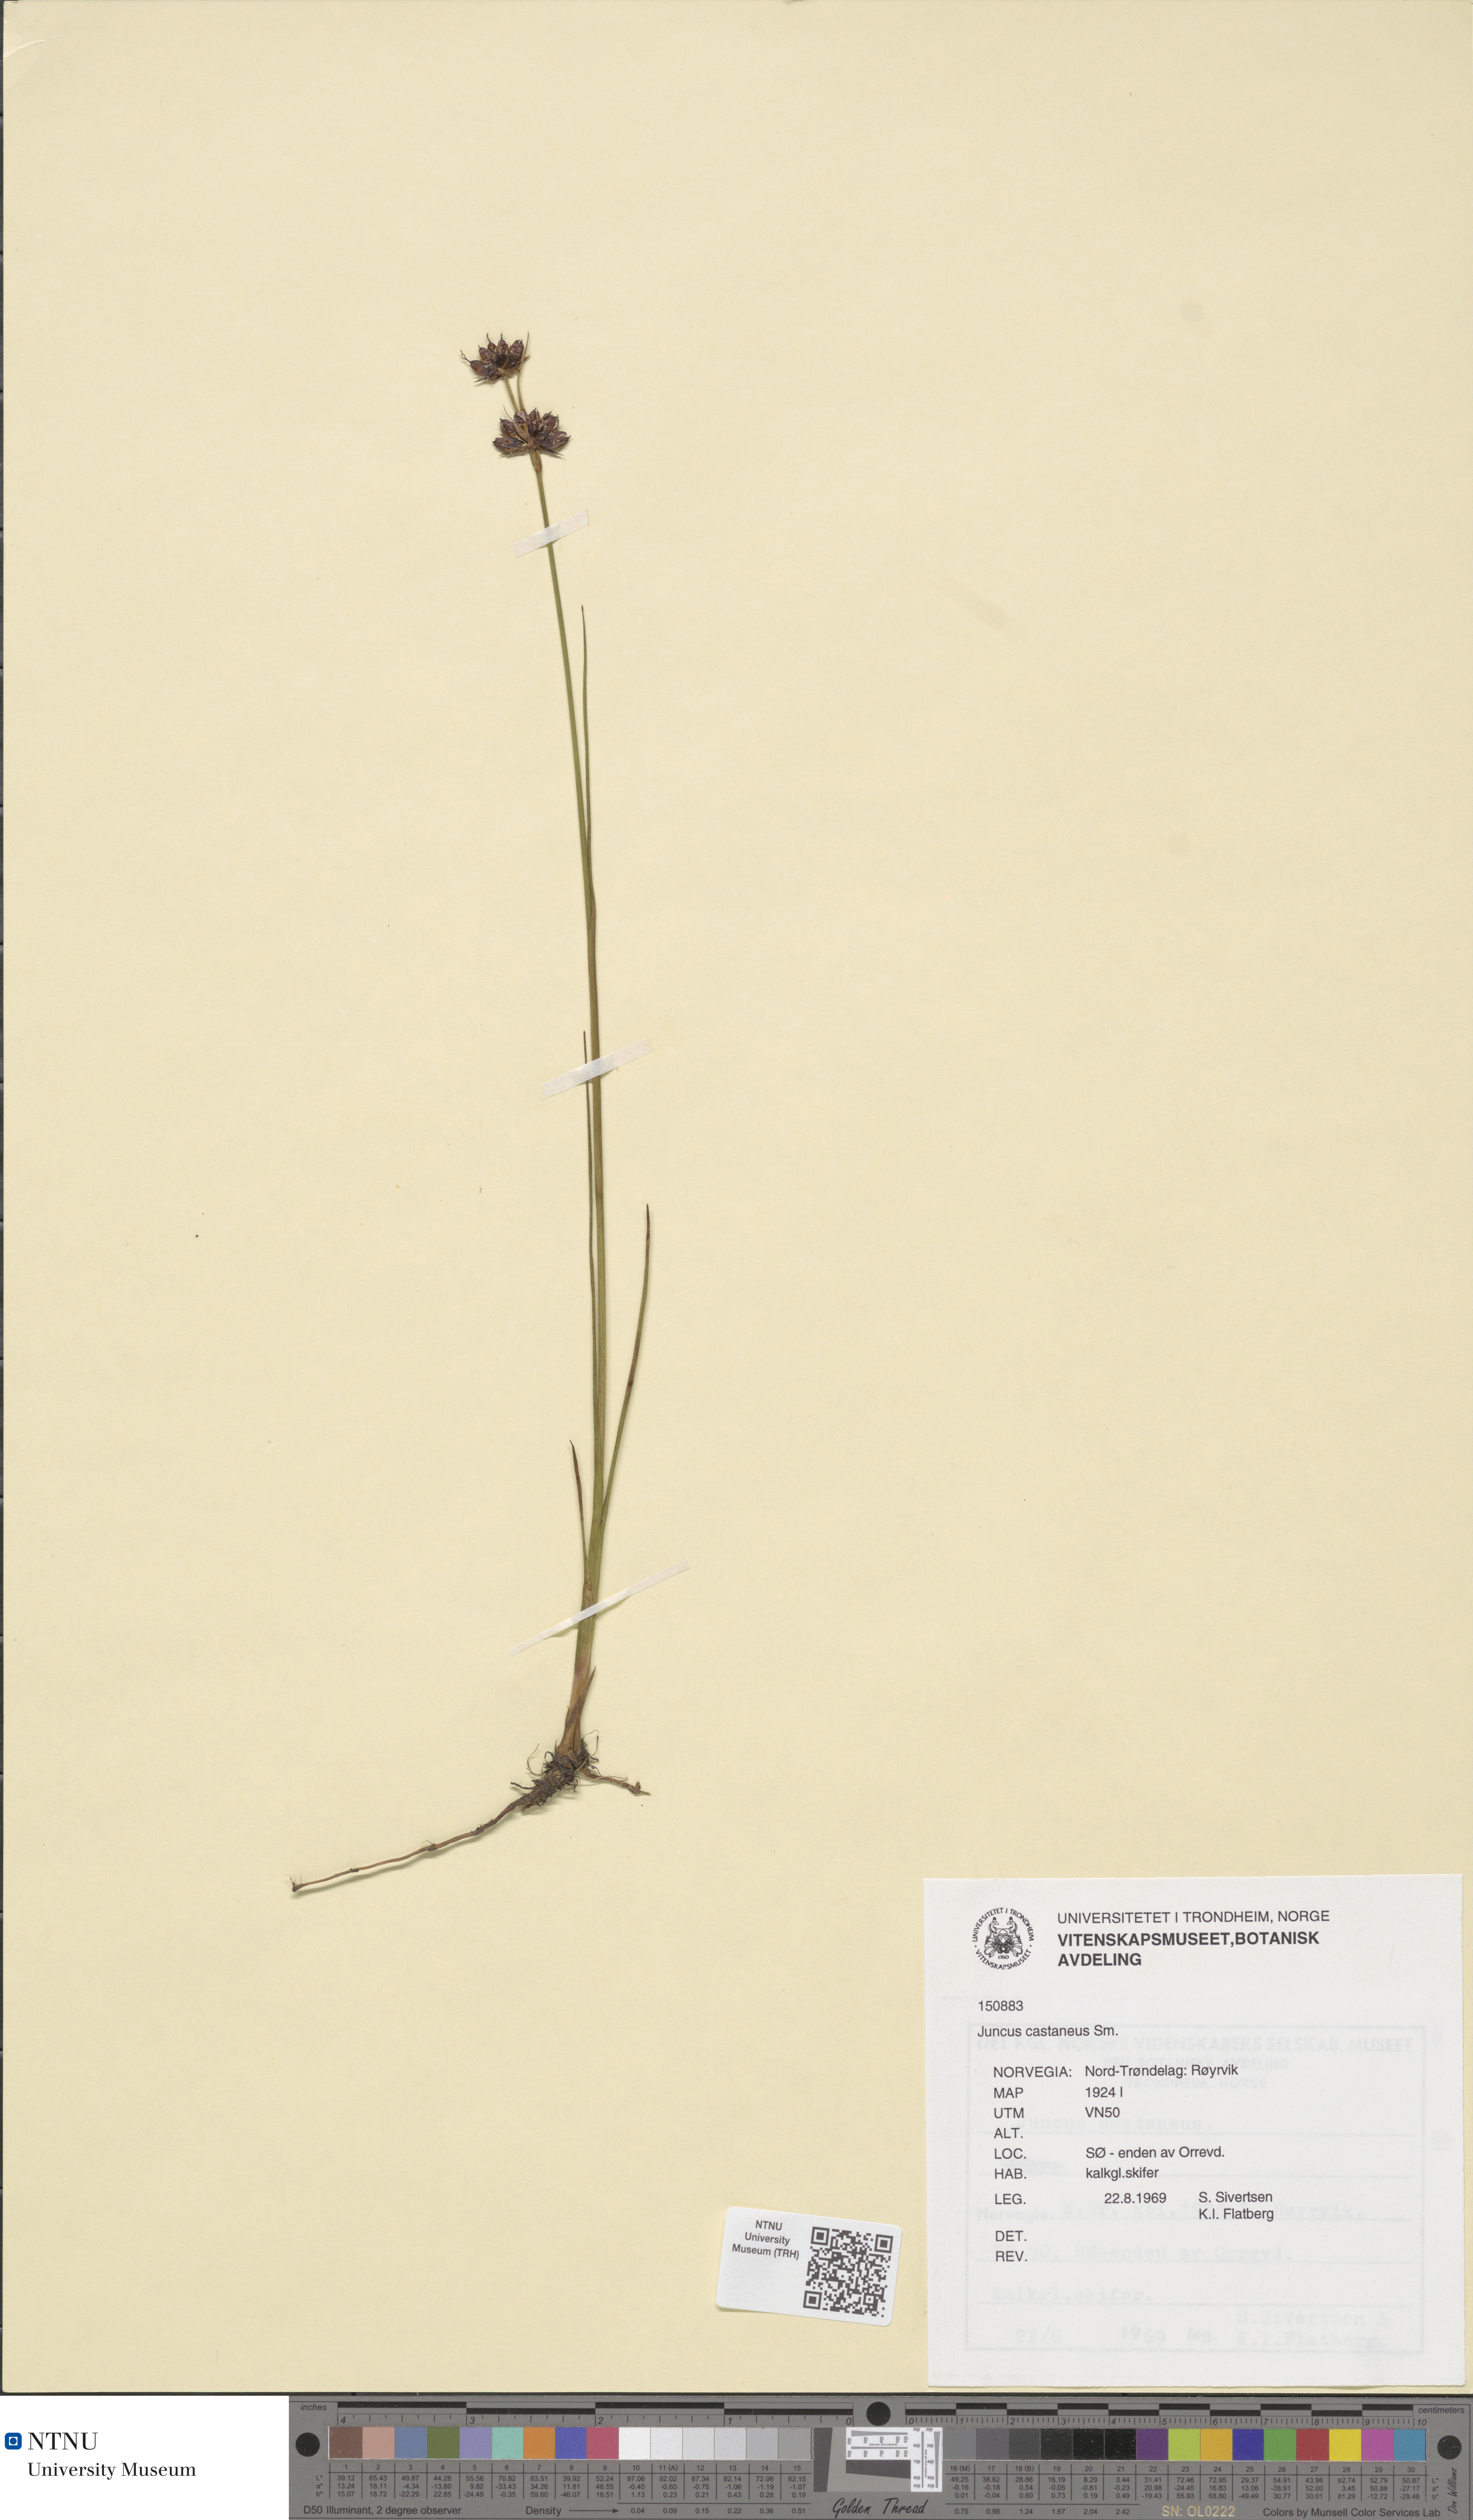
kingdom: Plantae
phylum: Tracheophyta
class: Liliopsida
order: Poales
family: Juncaceae
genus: Juncus
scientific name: Juncus castaneus
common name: Chestnut rush
